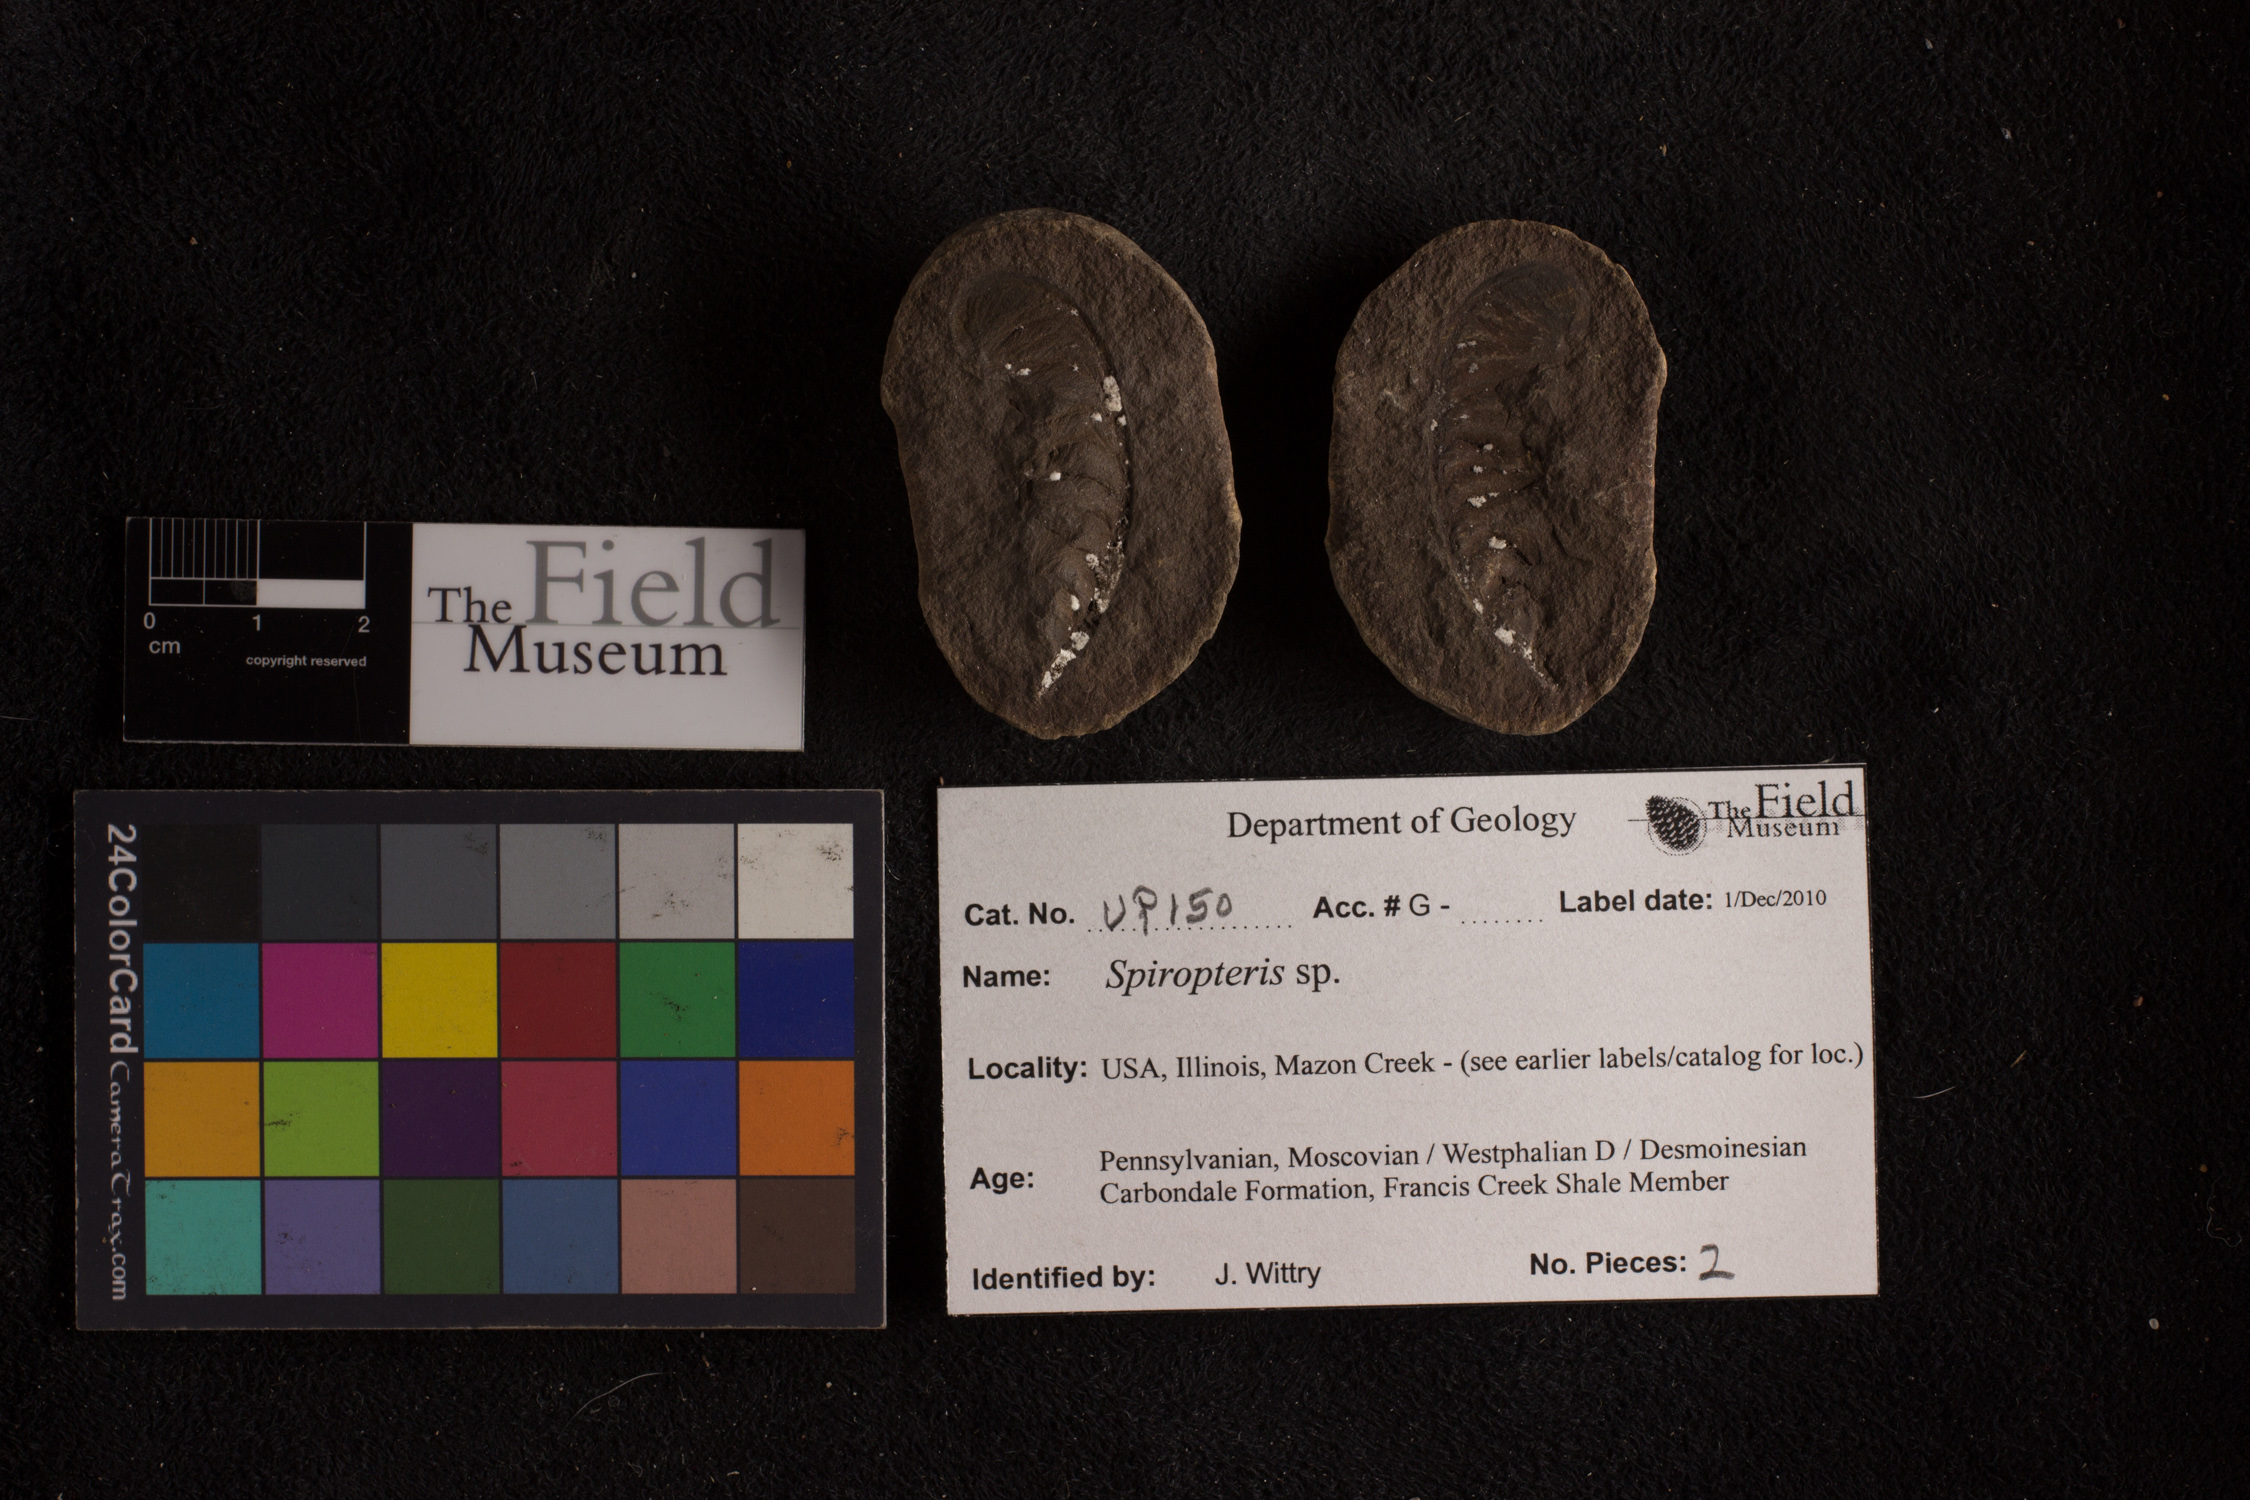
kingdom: Plantae
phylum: Tracheophyta
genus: Spiropteris
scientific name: Spiropteris
